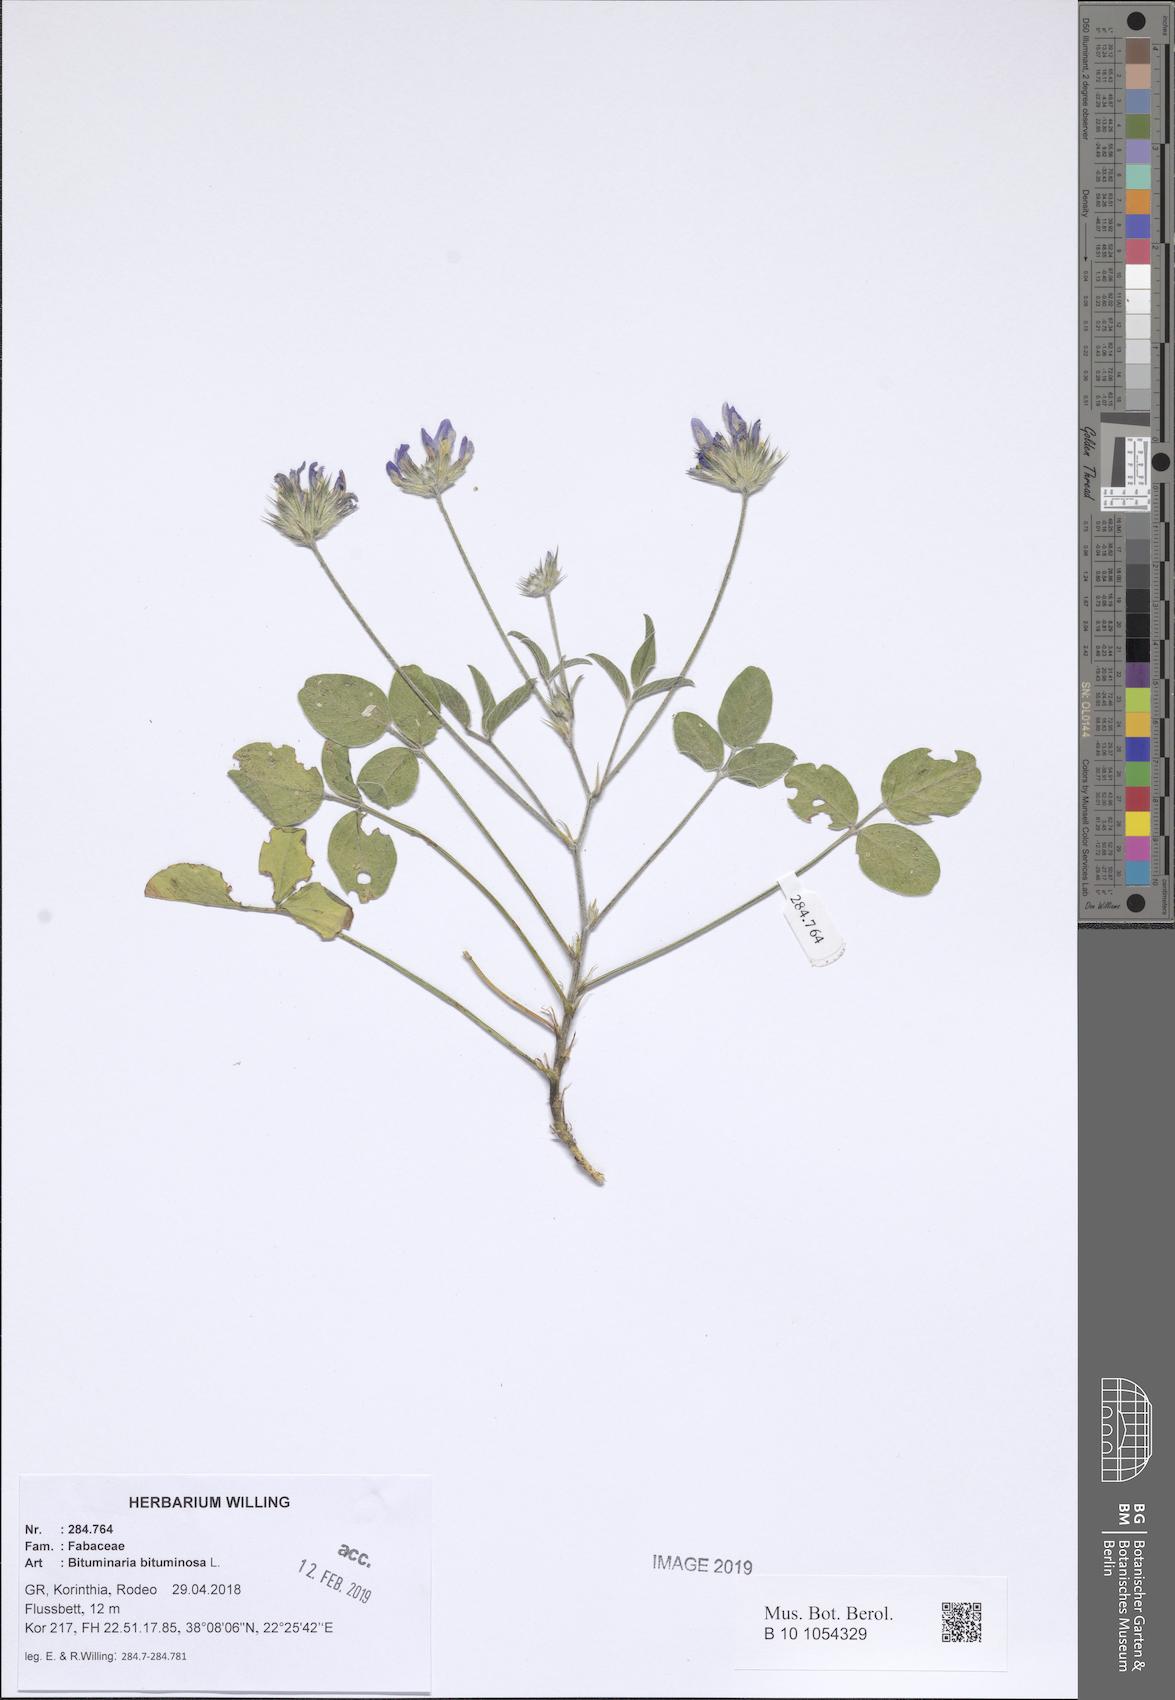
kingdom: Plantae
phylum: Tracheophyta
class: Magnoliopsida
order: Fabales
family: Fabaceae
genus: Bituminaria
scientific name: Bituminaria bituminosa
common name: Arabian pea
